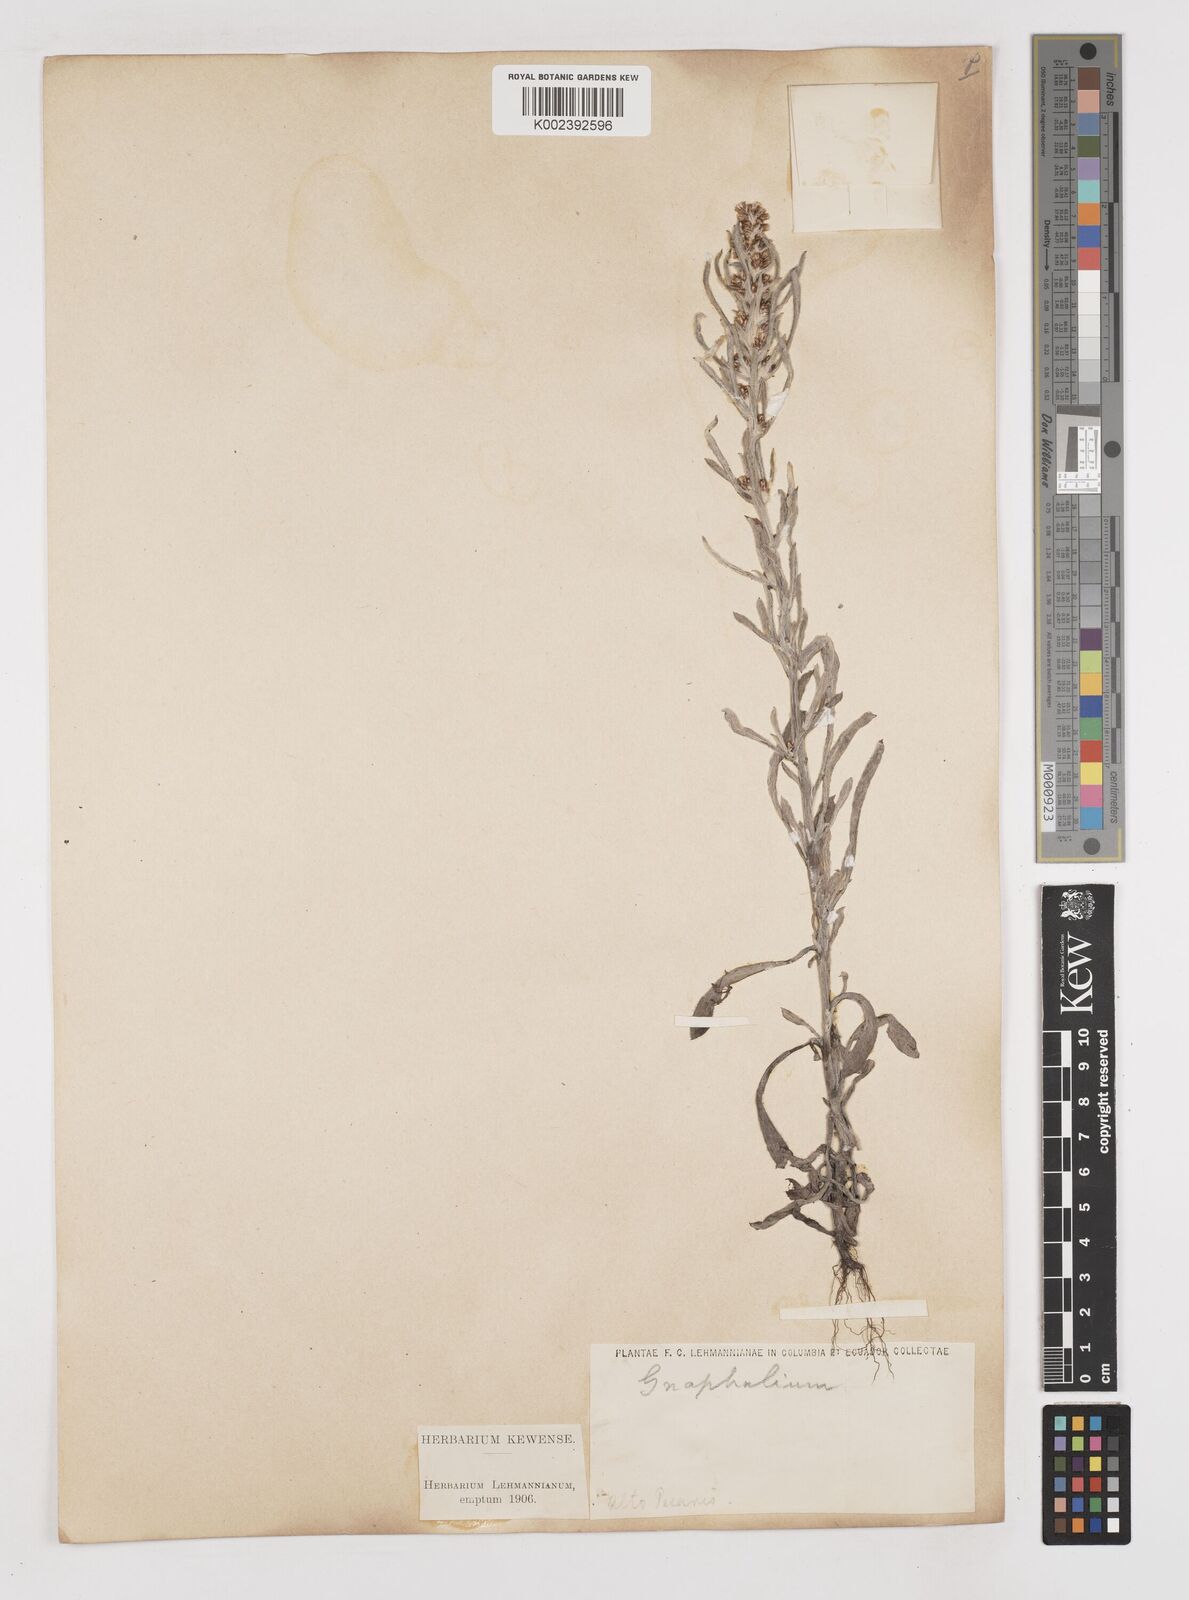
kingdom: Plantae
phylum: Tracheophyta
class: Magnoliopsida
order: Asterales
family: Asteraceae
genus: Gamochaeta
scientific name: Gamochaeta americana
